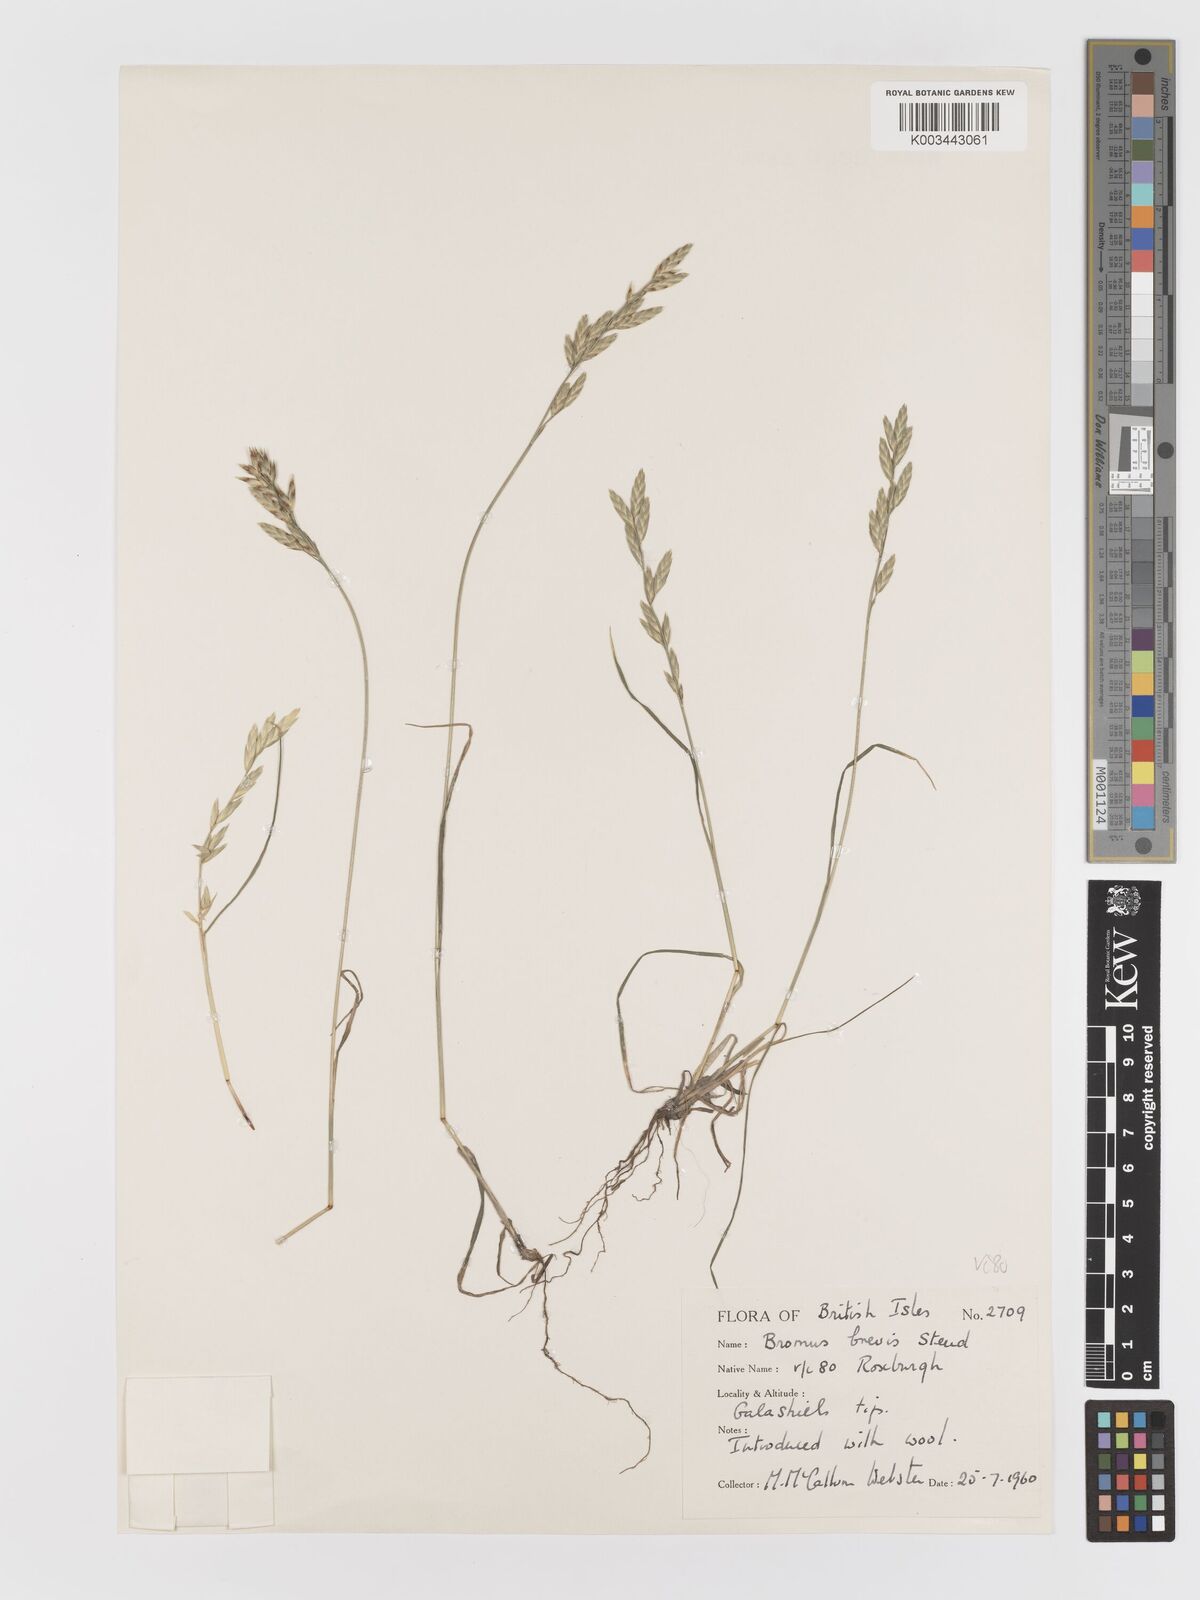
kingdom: Plantae
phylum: Tracheophyta
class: Liliopsida
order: Poales
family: Poaceae
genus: Bromus
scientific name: Bromus catharticus
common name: Rescuegrass
